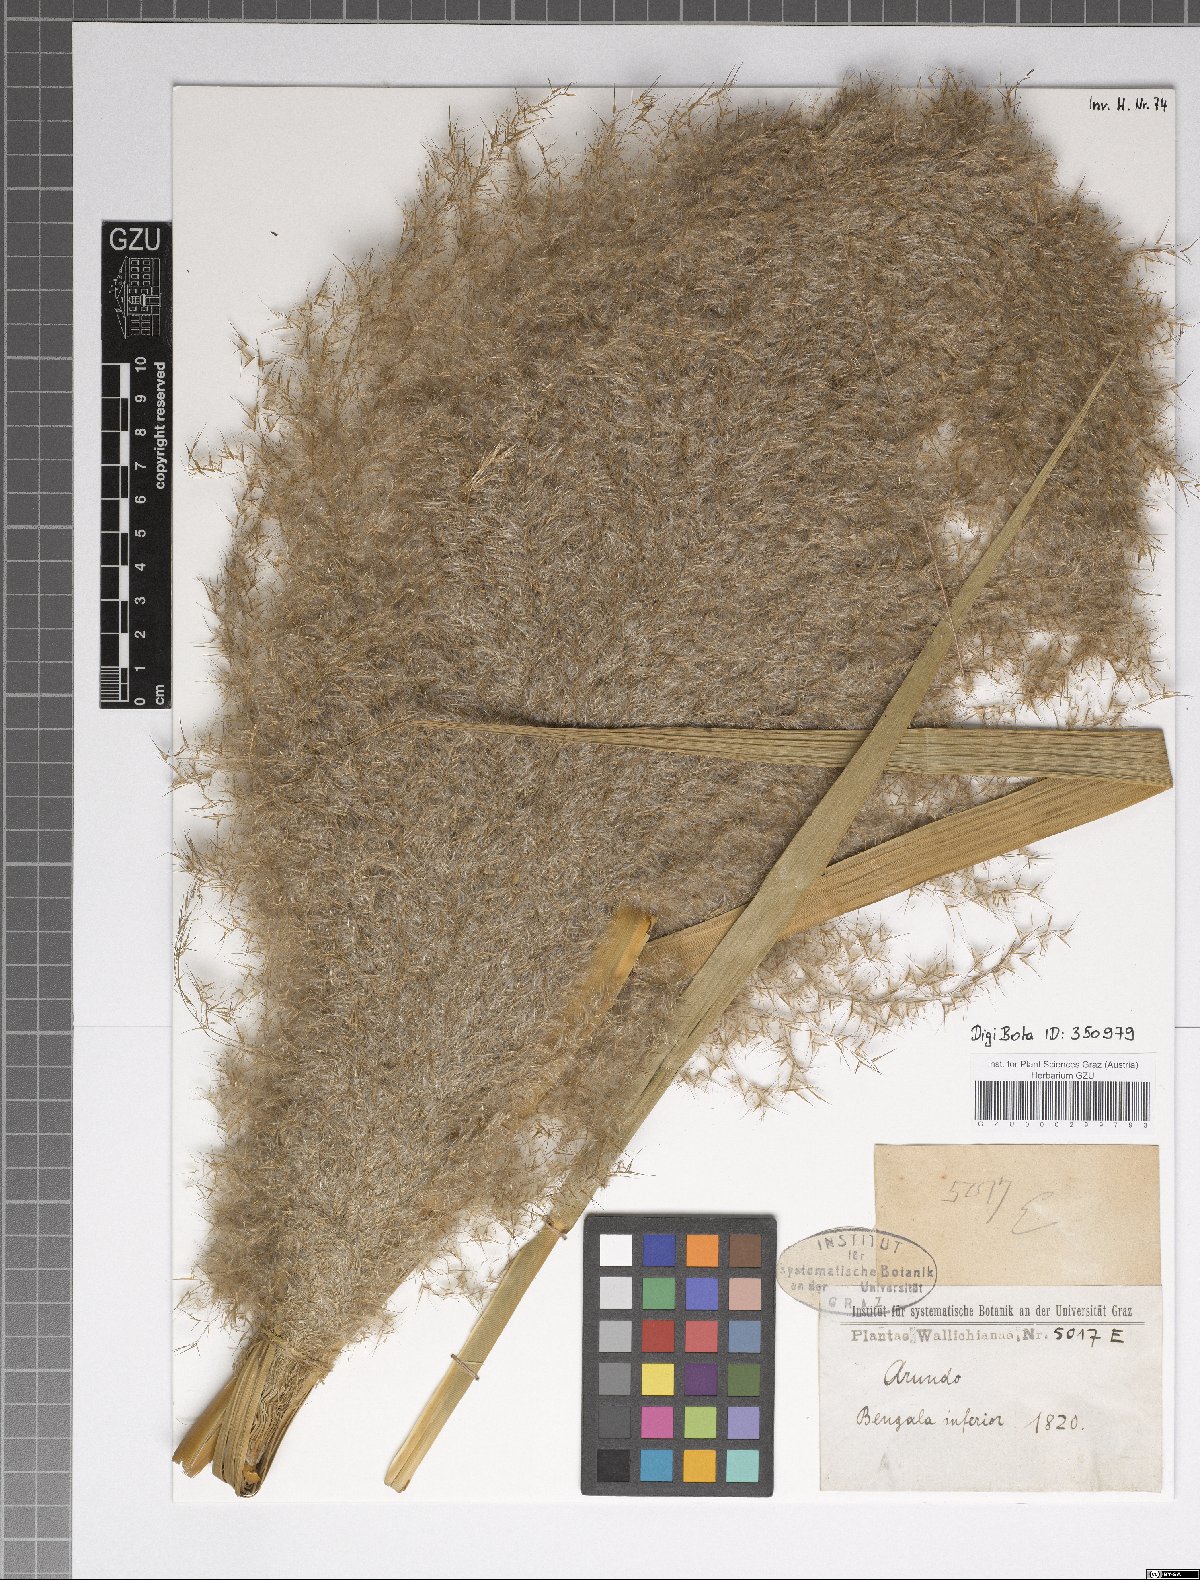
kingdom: Plantae
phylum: Tracheophyta
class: Liliopsida
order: Poales
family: Poaceae
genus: Arundo
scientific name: Arundo
